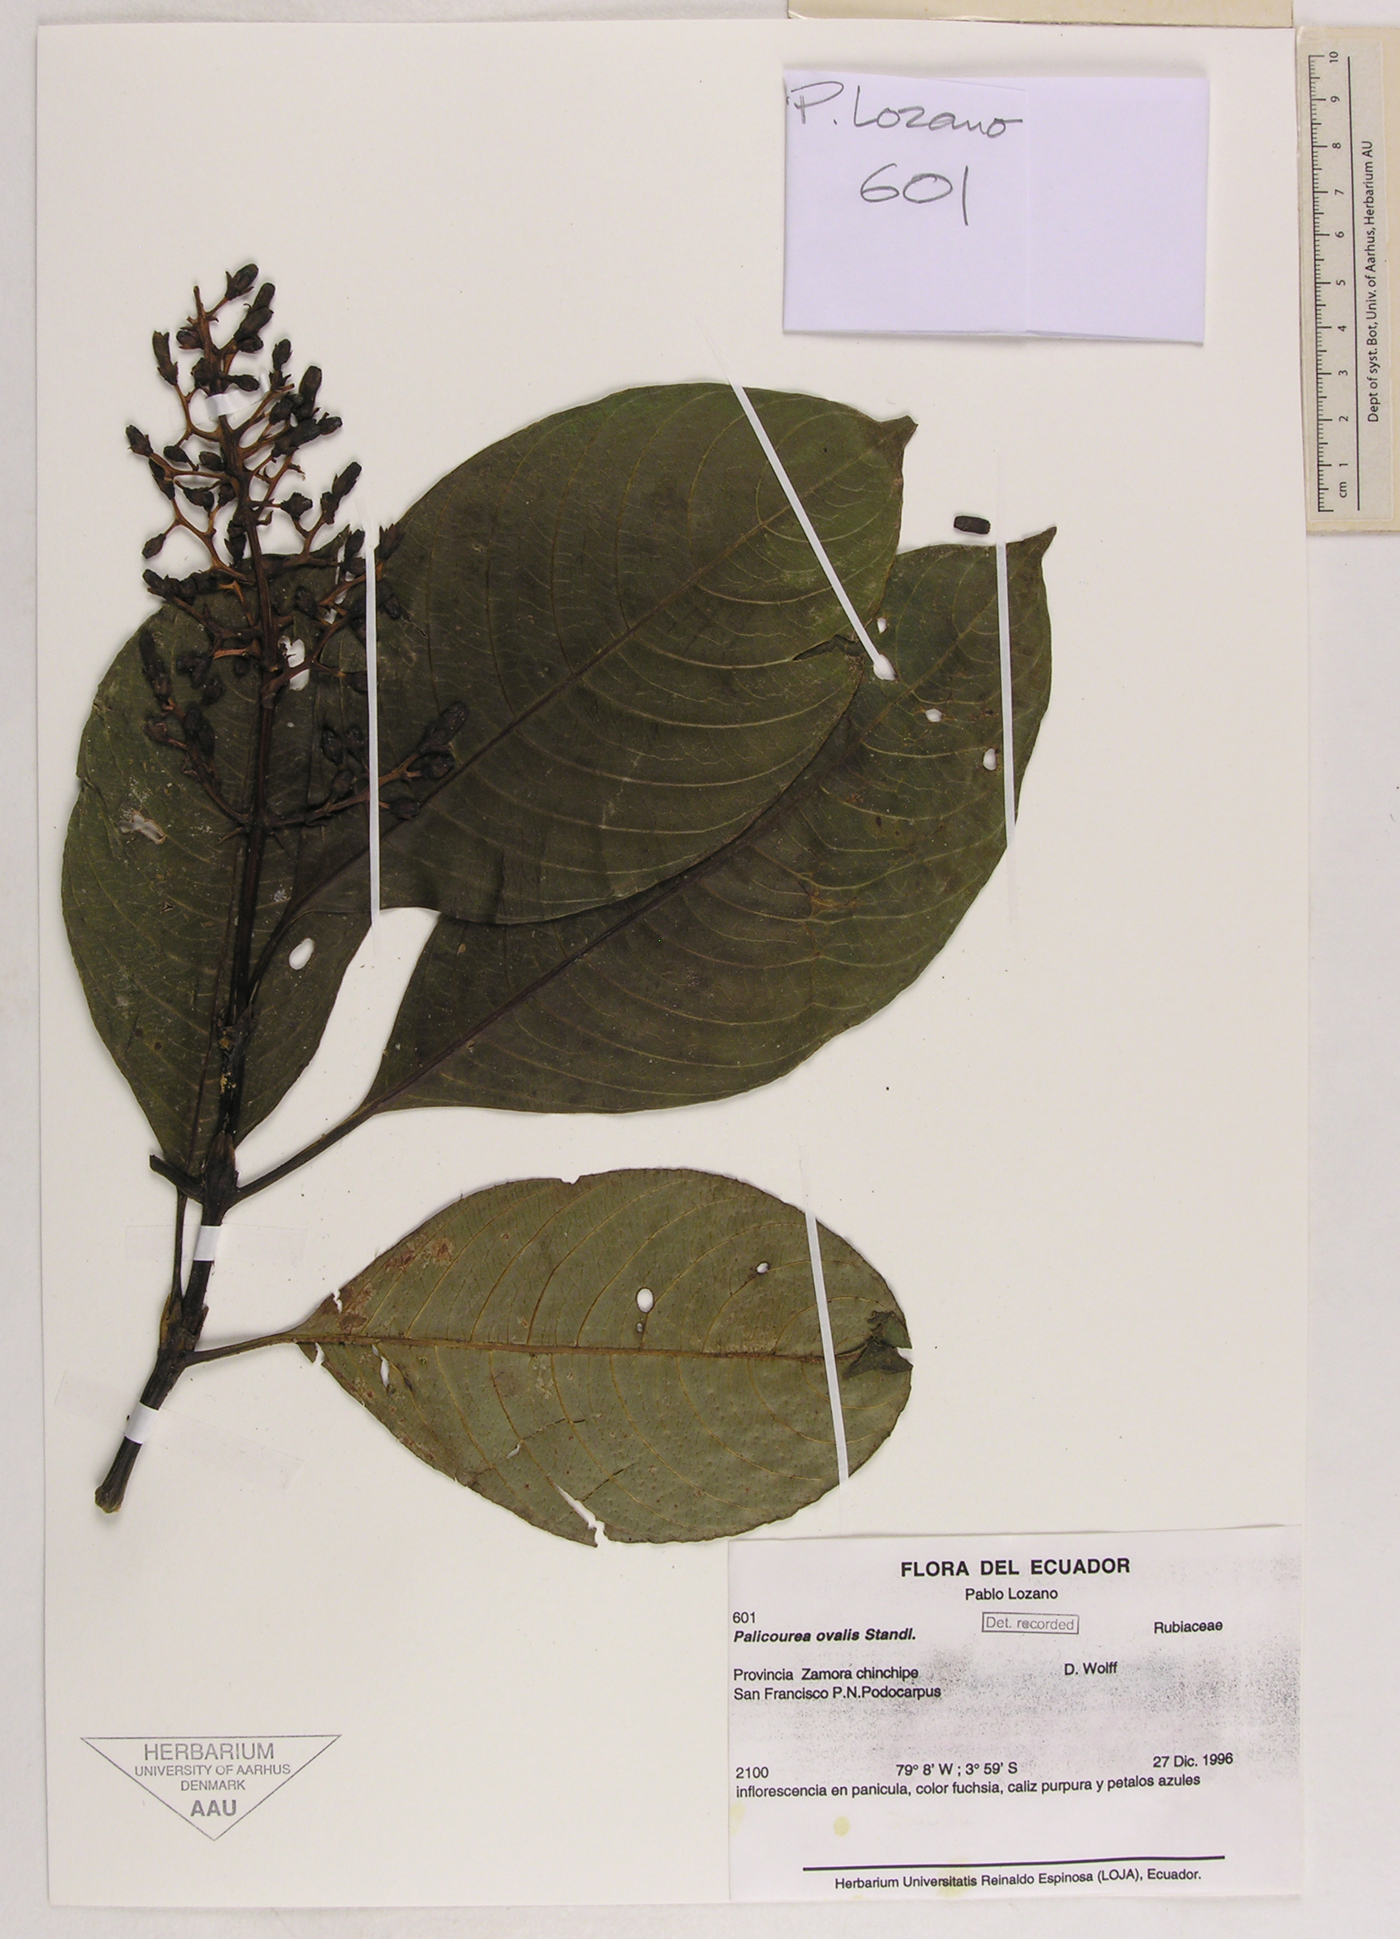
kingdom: Plantae
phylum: Tracheophyta
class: Magnoliopsida
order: Gentianales
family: Rubiaceae
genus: Palicourea
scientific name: Palicourea ovalis
